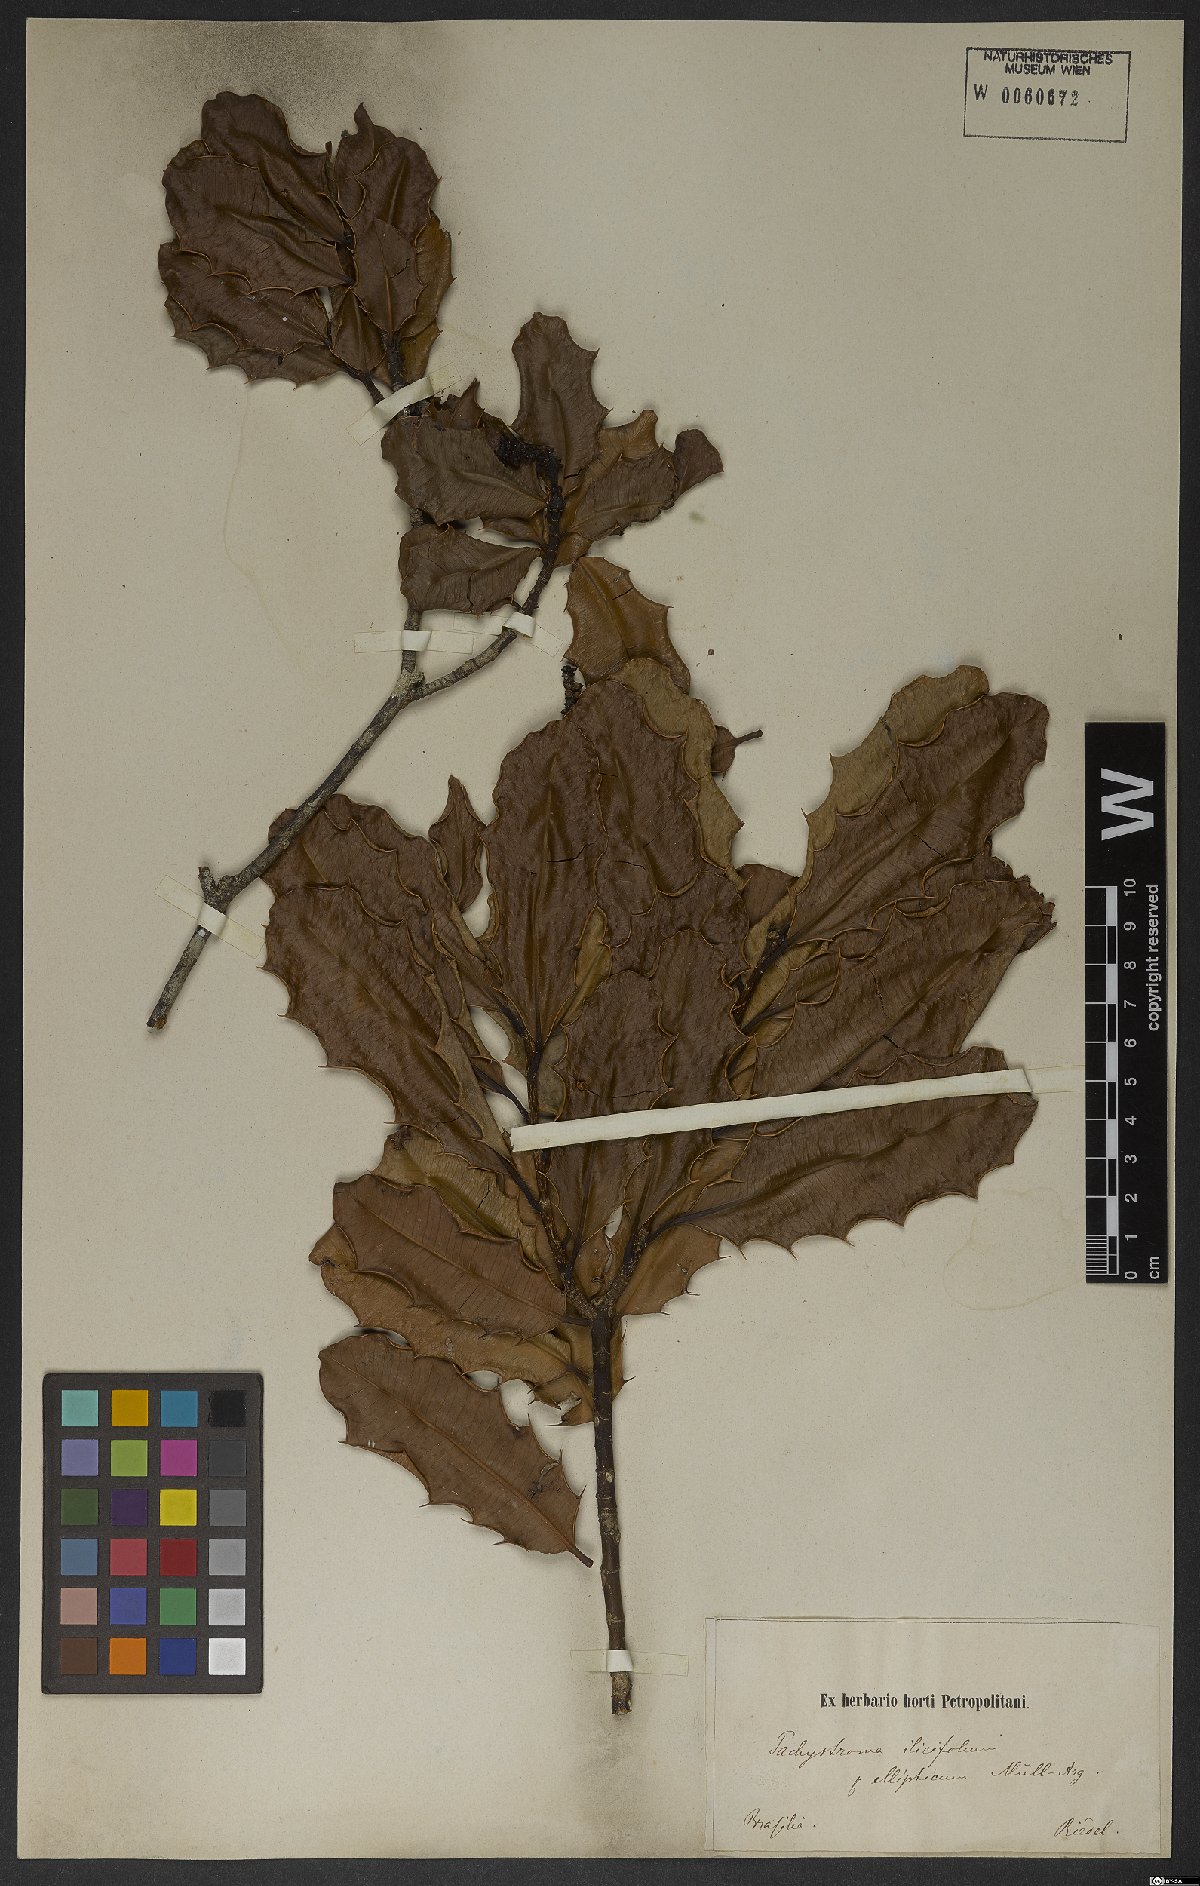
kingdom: Plantae
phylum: Tracheophyta
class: Magnoliopsida
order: Malpighiales
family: Euphorbiaceae
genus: Pachystroma
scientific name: Pachystroma longifolium
